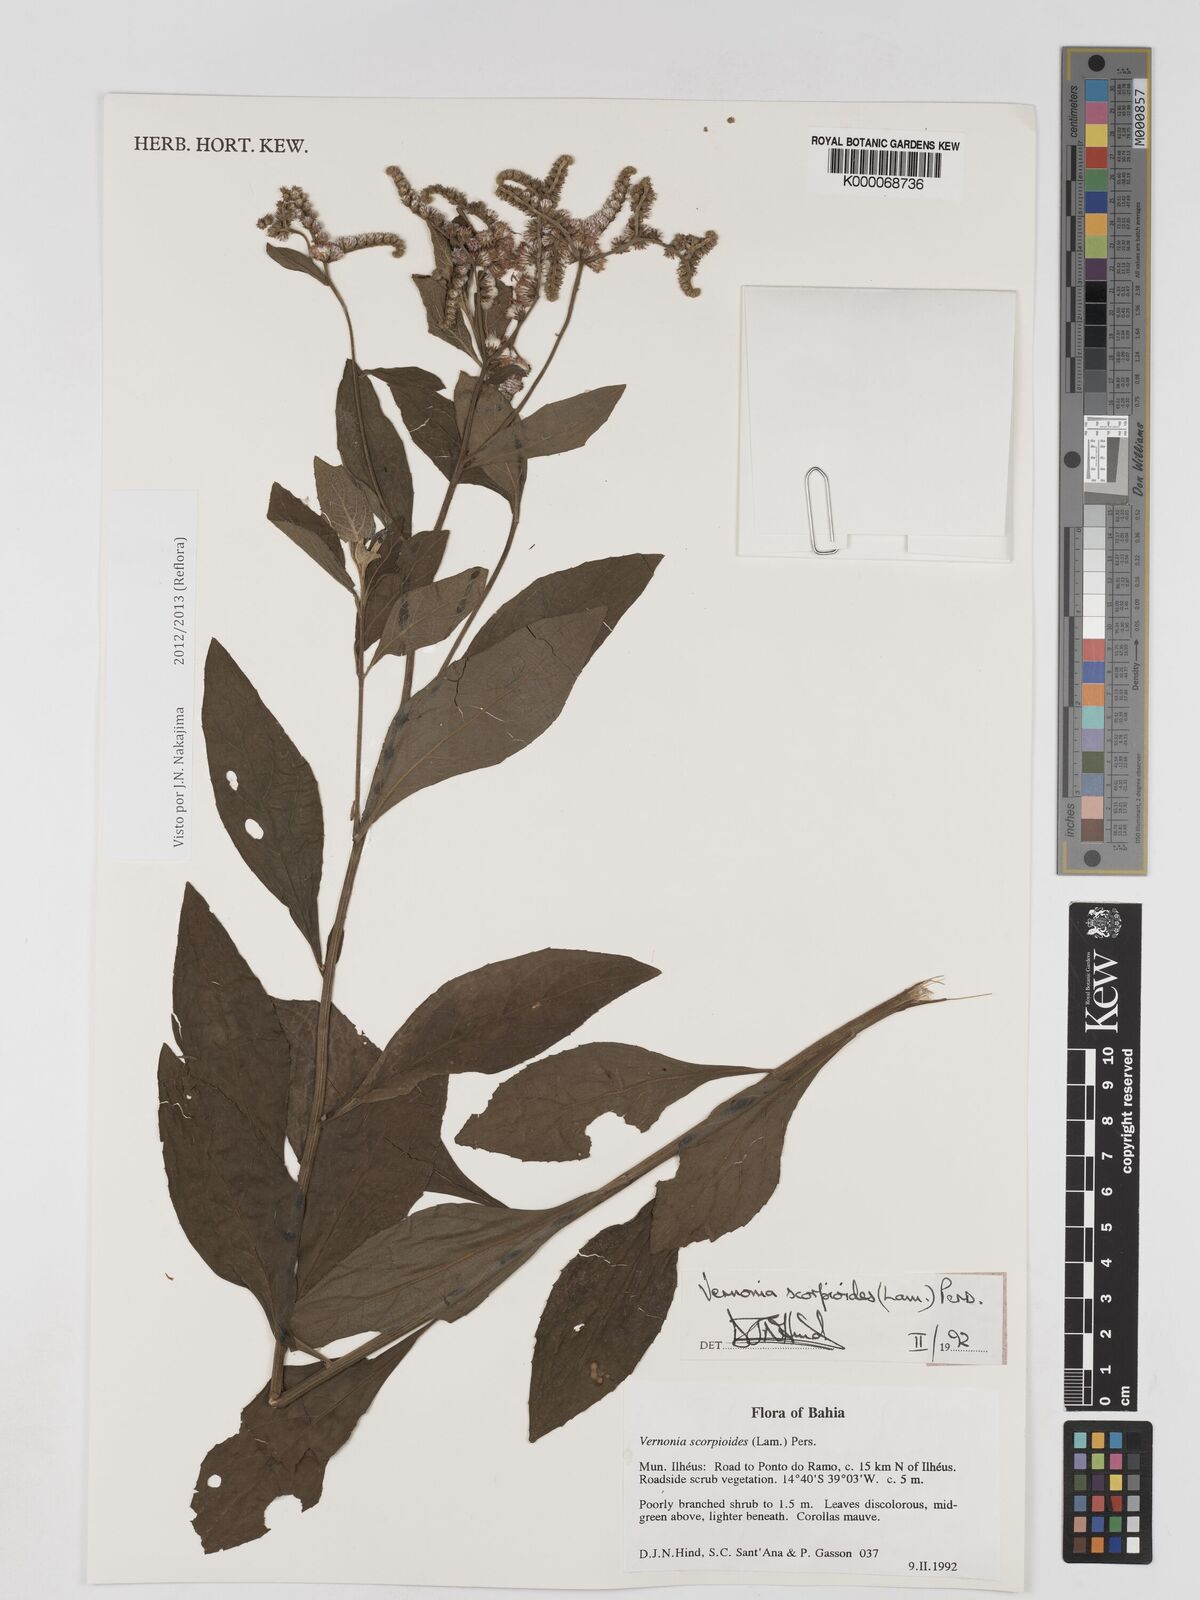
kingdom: Plantae
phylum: Tracheophyta
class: Magnoliopsida
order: Asterales
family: Asteraceae
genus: Cyrtocymura
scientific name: Cyrtocymura scorpioides
